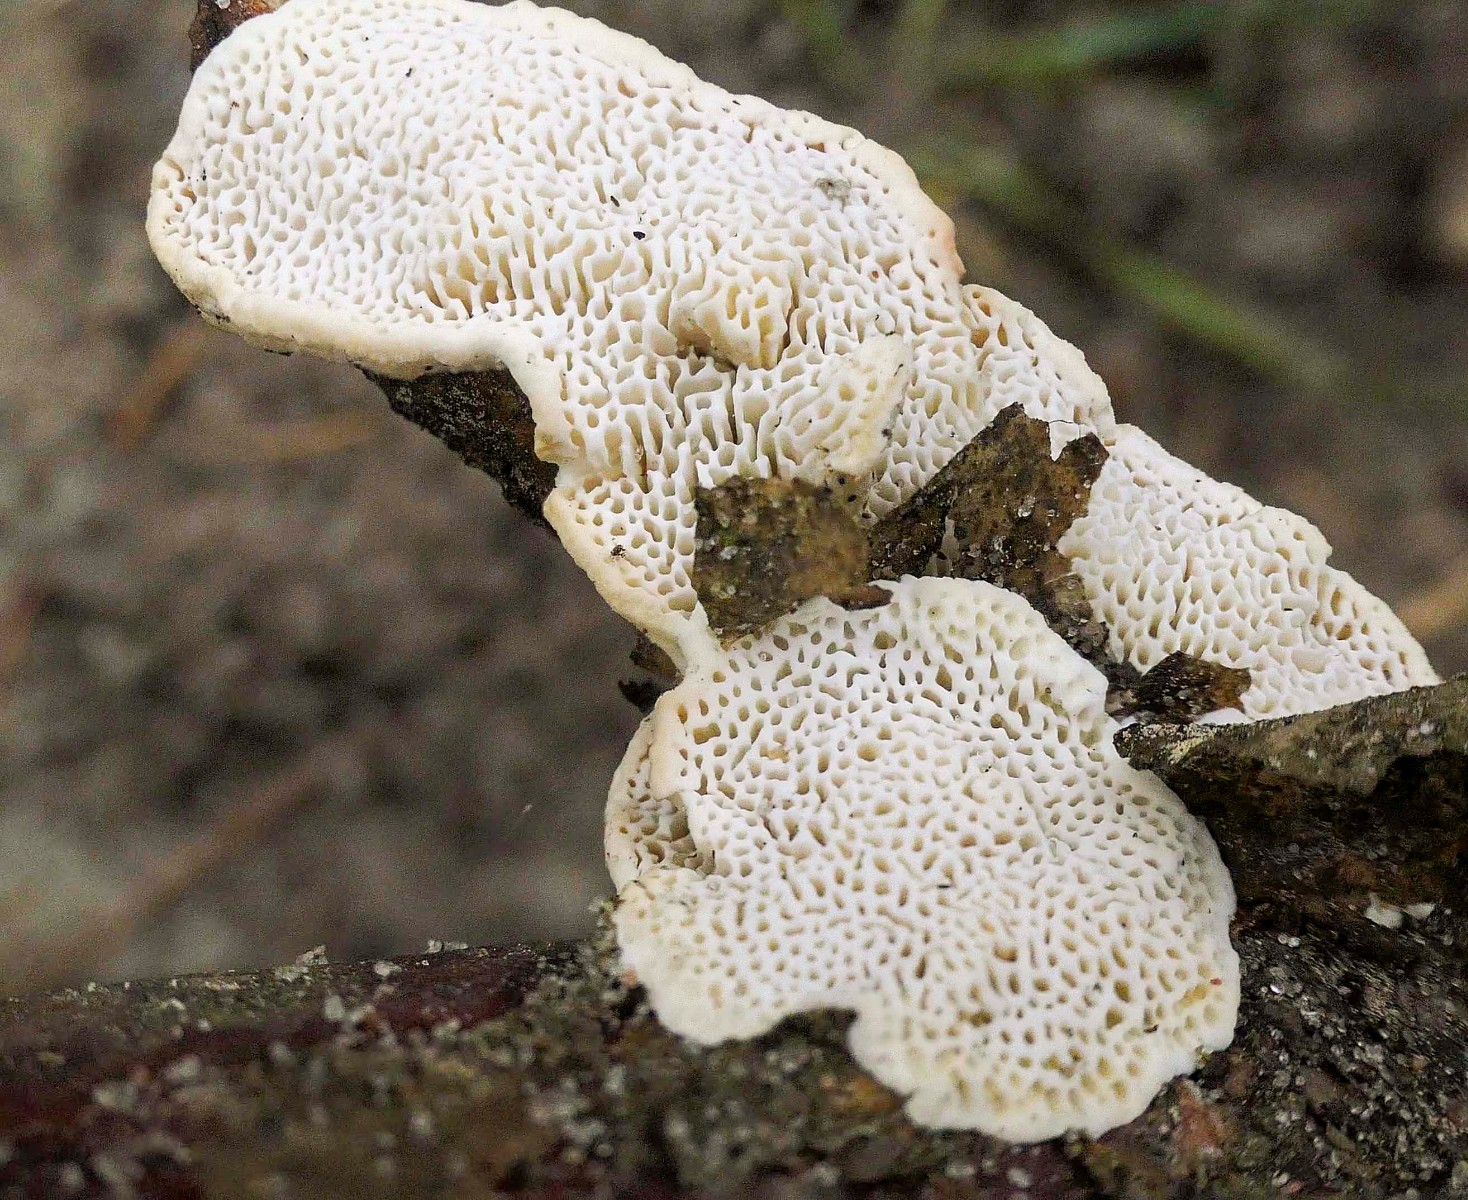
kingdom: Fungi
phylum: Basidiomycota
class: Agaricomycetes
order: Polyporales
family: Fomitopsidaceae
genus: Fomitopsis
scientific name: Fomitopsis
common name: fyrre-skiveporesvamp
